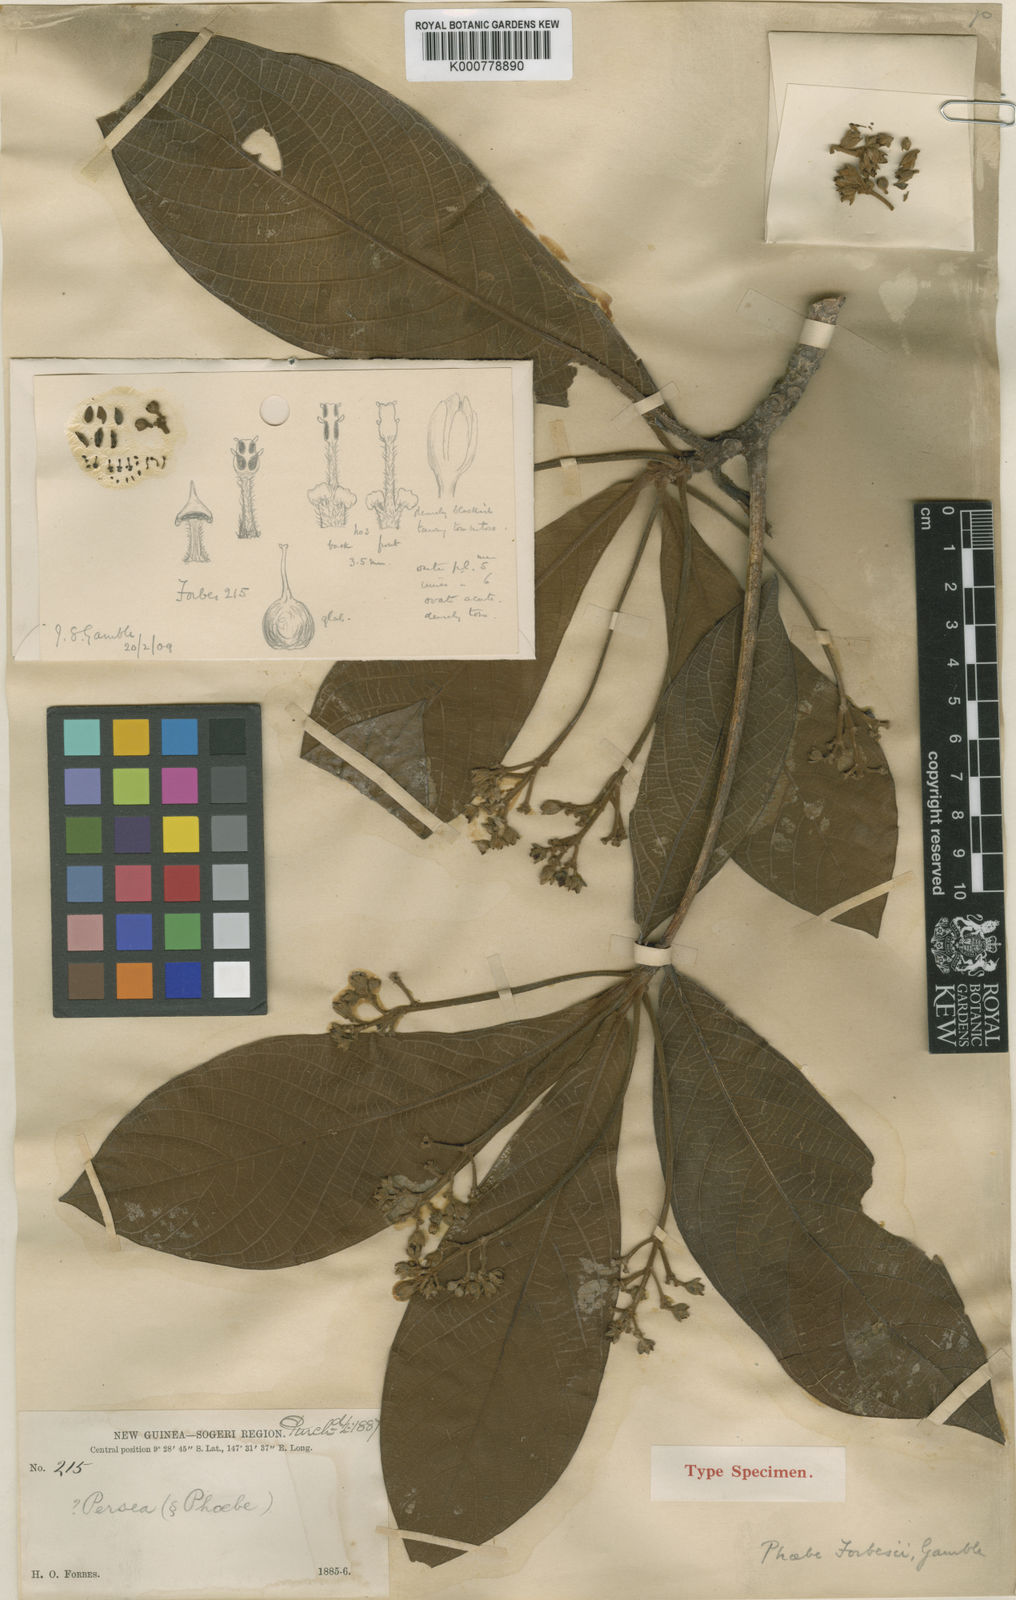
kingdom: Plantae
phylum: Tracheophyta
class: Magnoliopsida
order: Laurales
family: Lauraceae
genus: Phoebe
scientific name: Phoebe forbesii
